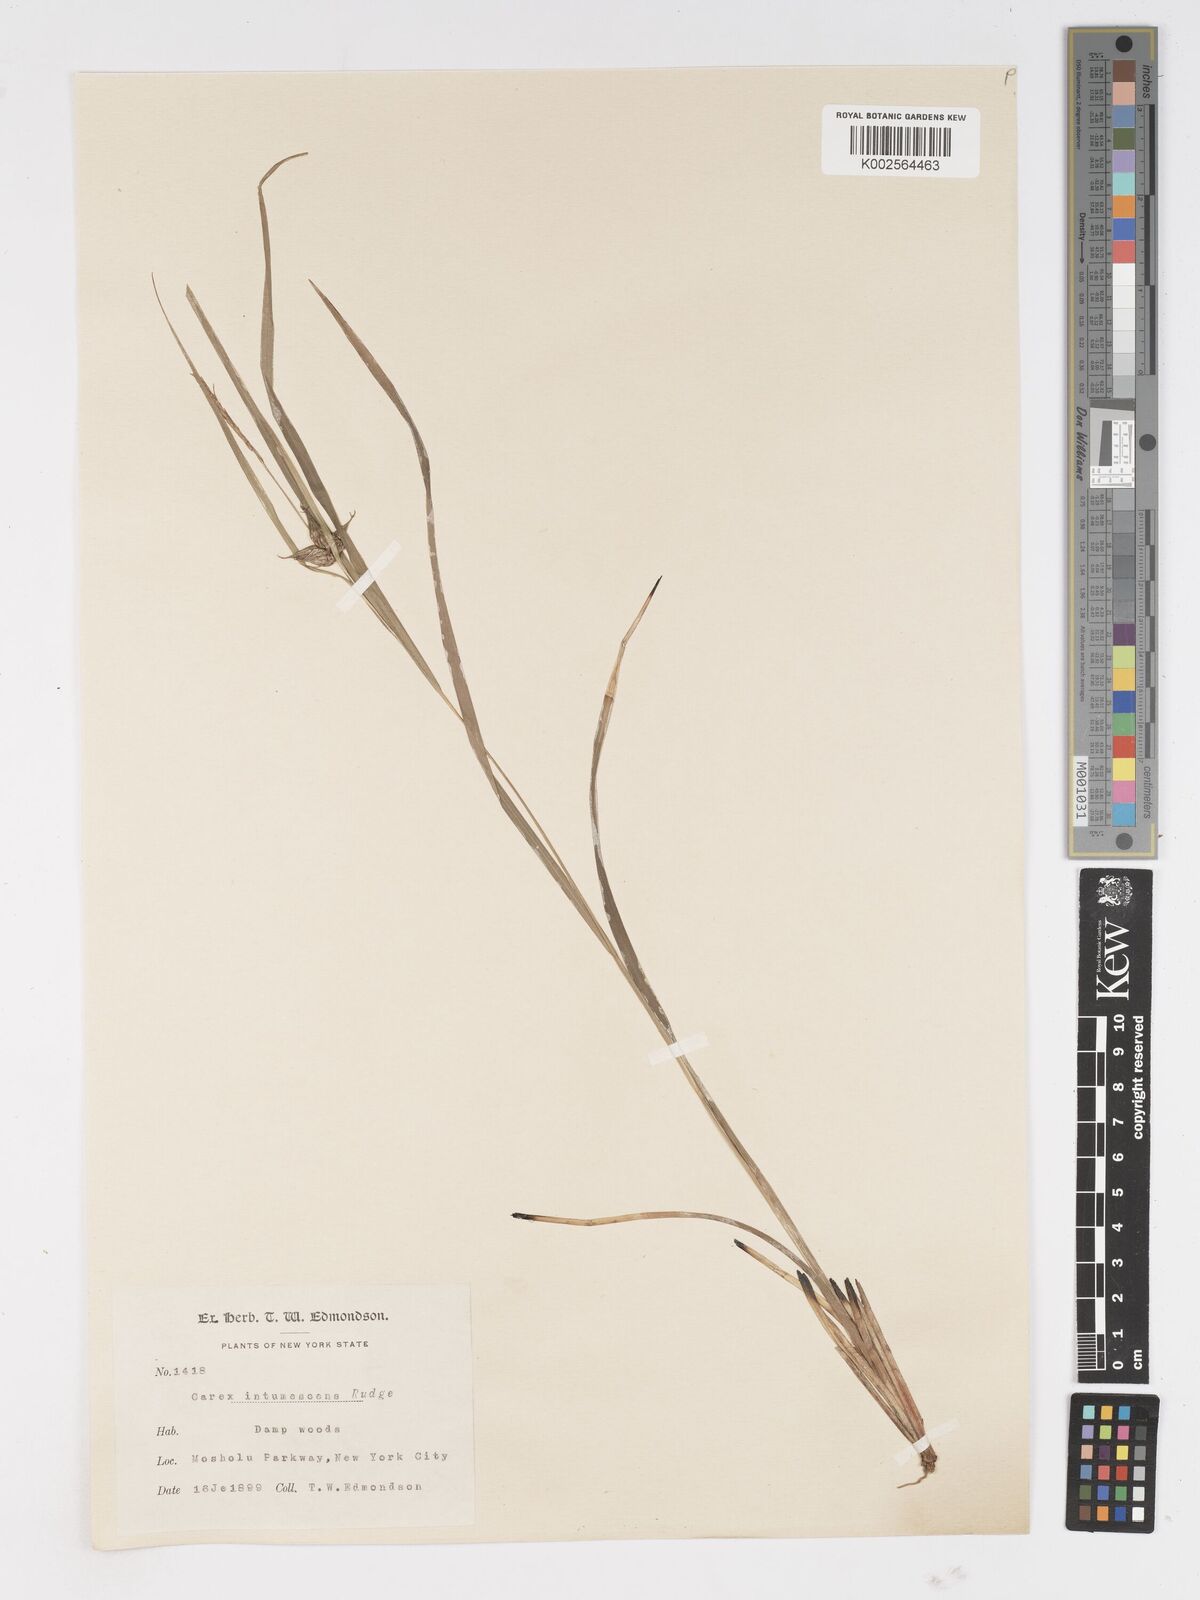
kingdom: Plantae
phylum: Tracheophyta
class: Liliopsida
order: Poales
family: Cyperaceae
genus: Carex
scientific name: Carex intumescens
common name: Greater bladder sedge
